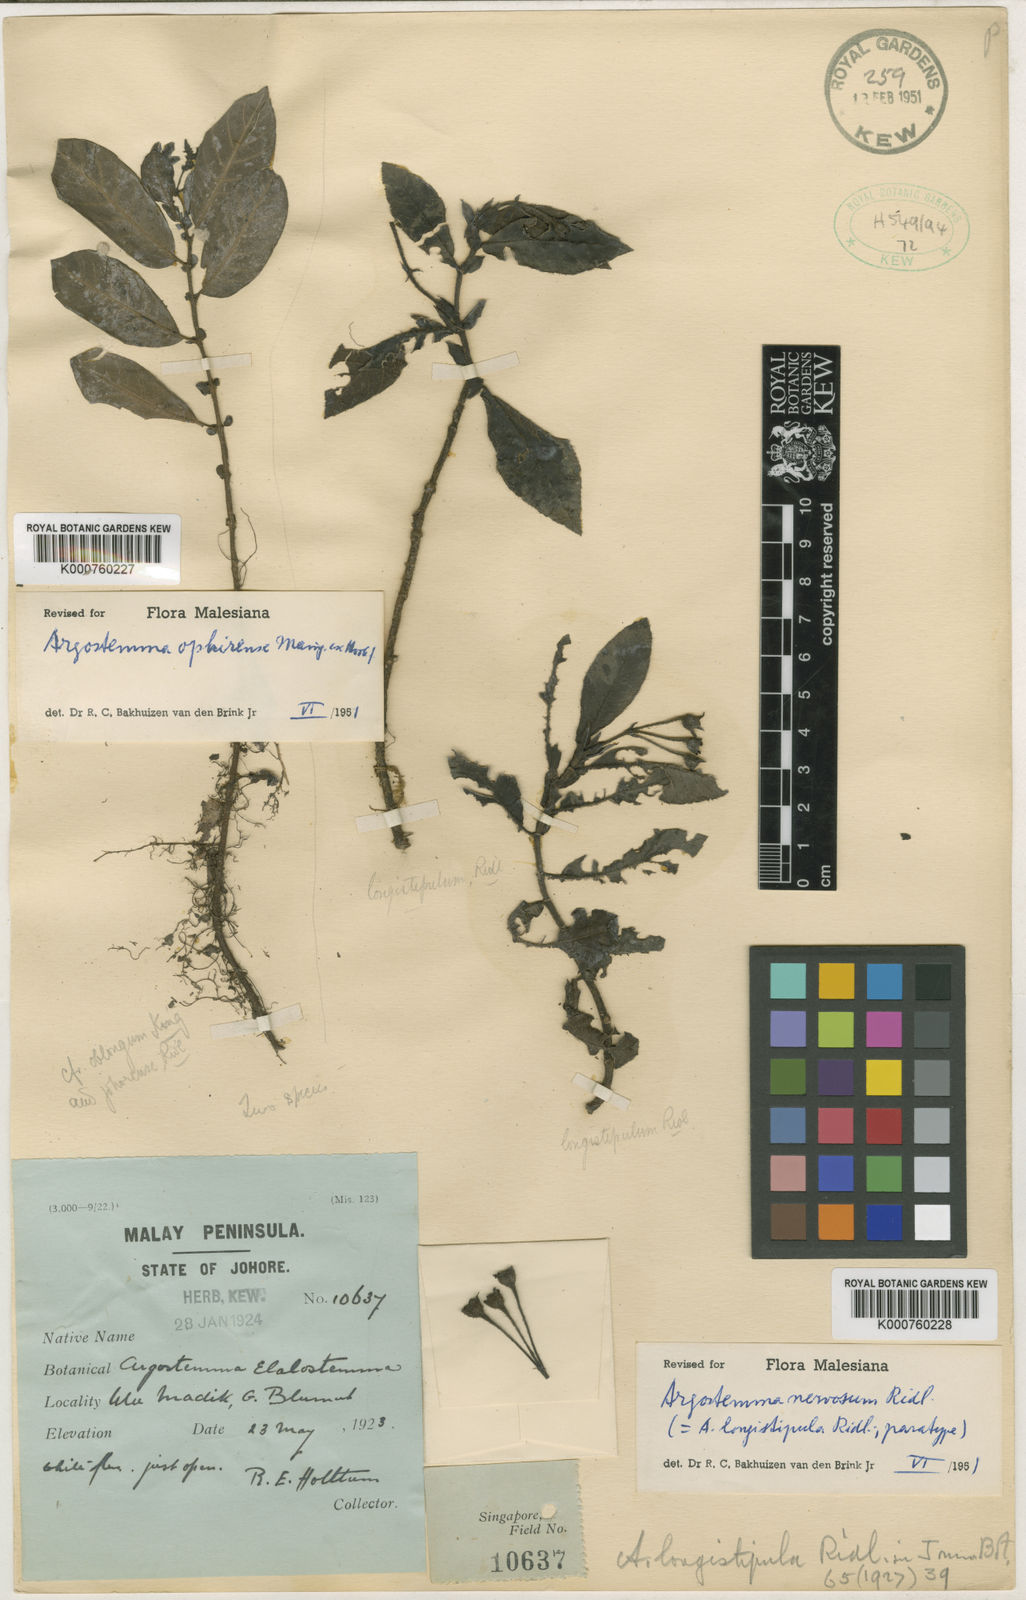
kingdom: Plantae
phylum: Tracheophyta
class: Magnoliopsida
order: Gentianales
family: Rubiaceae
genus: Argostemma
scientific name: Argostemma nervosum
